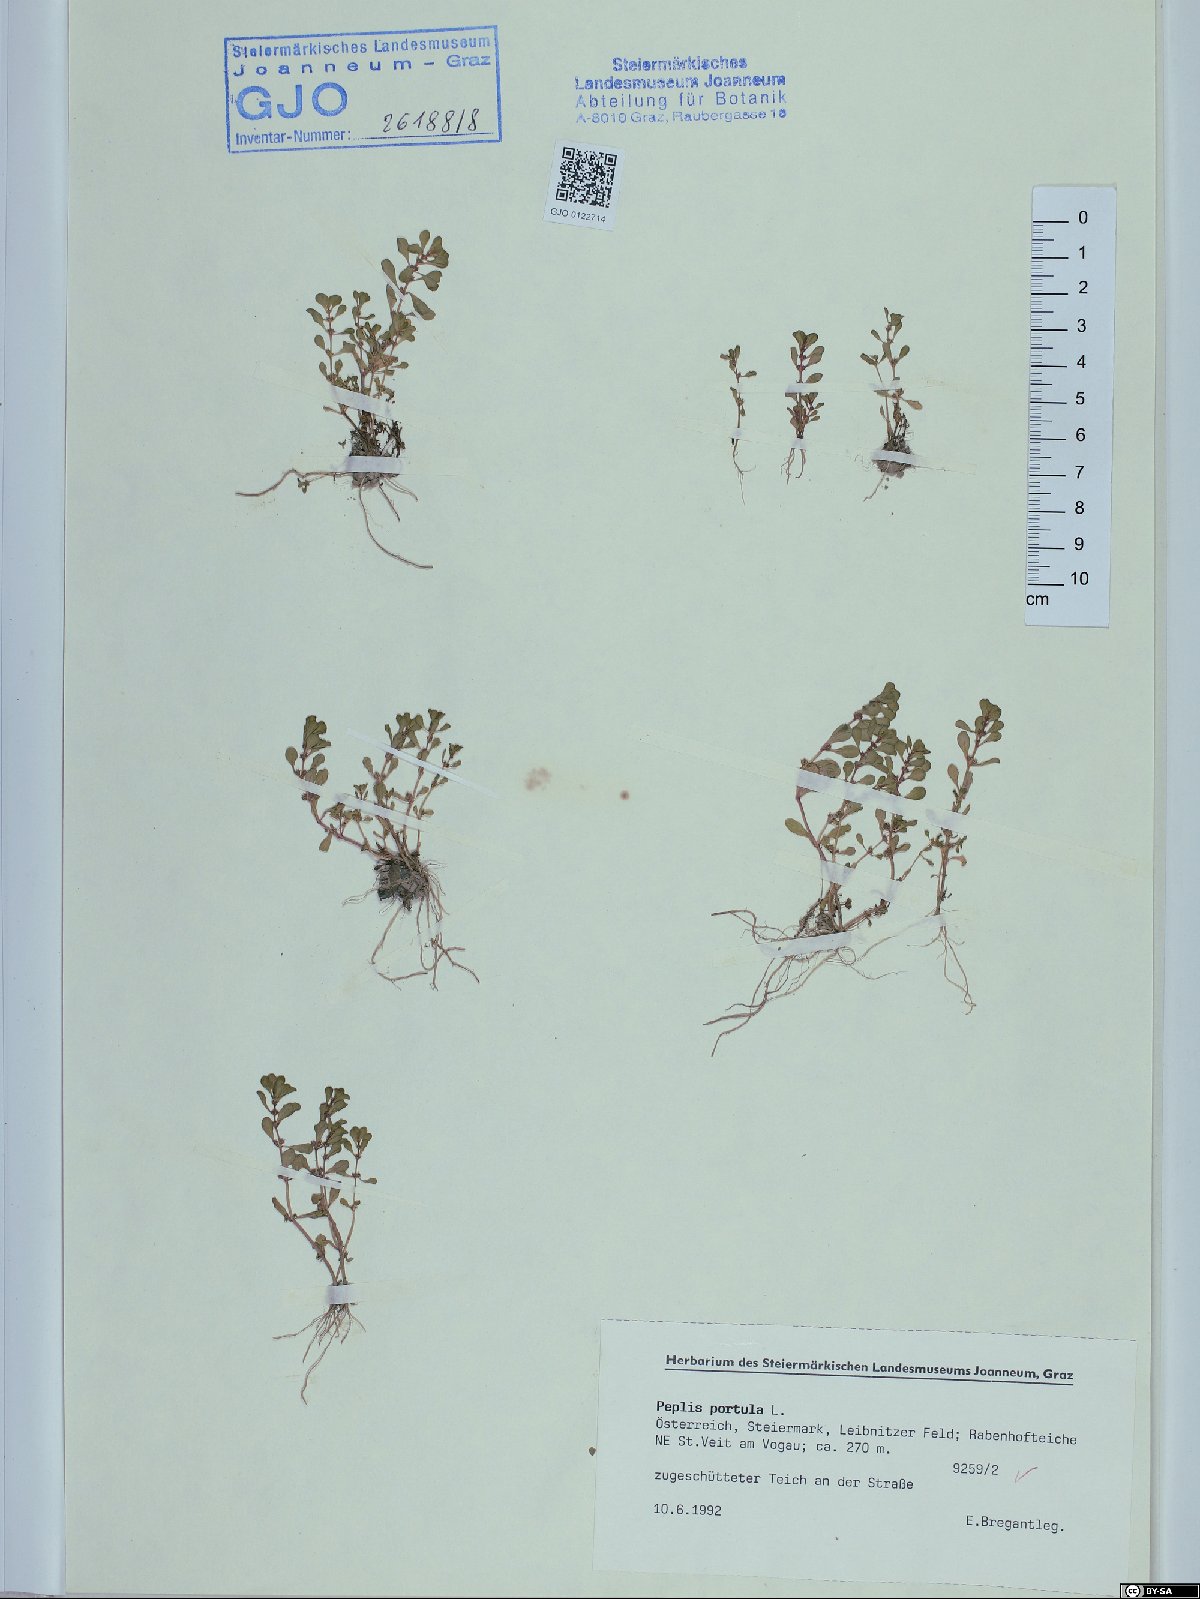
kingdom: Plantae
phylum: Tracheophyta
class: Magnoliopsida
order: Myrtales
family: Lythraceae
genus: Lythrum
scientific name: Lythrum portula
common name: Water purslane
